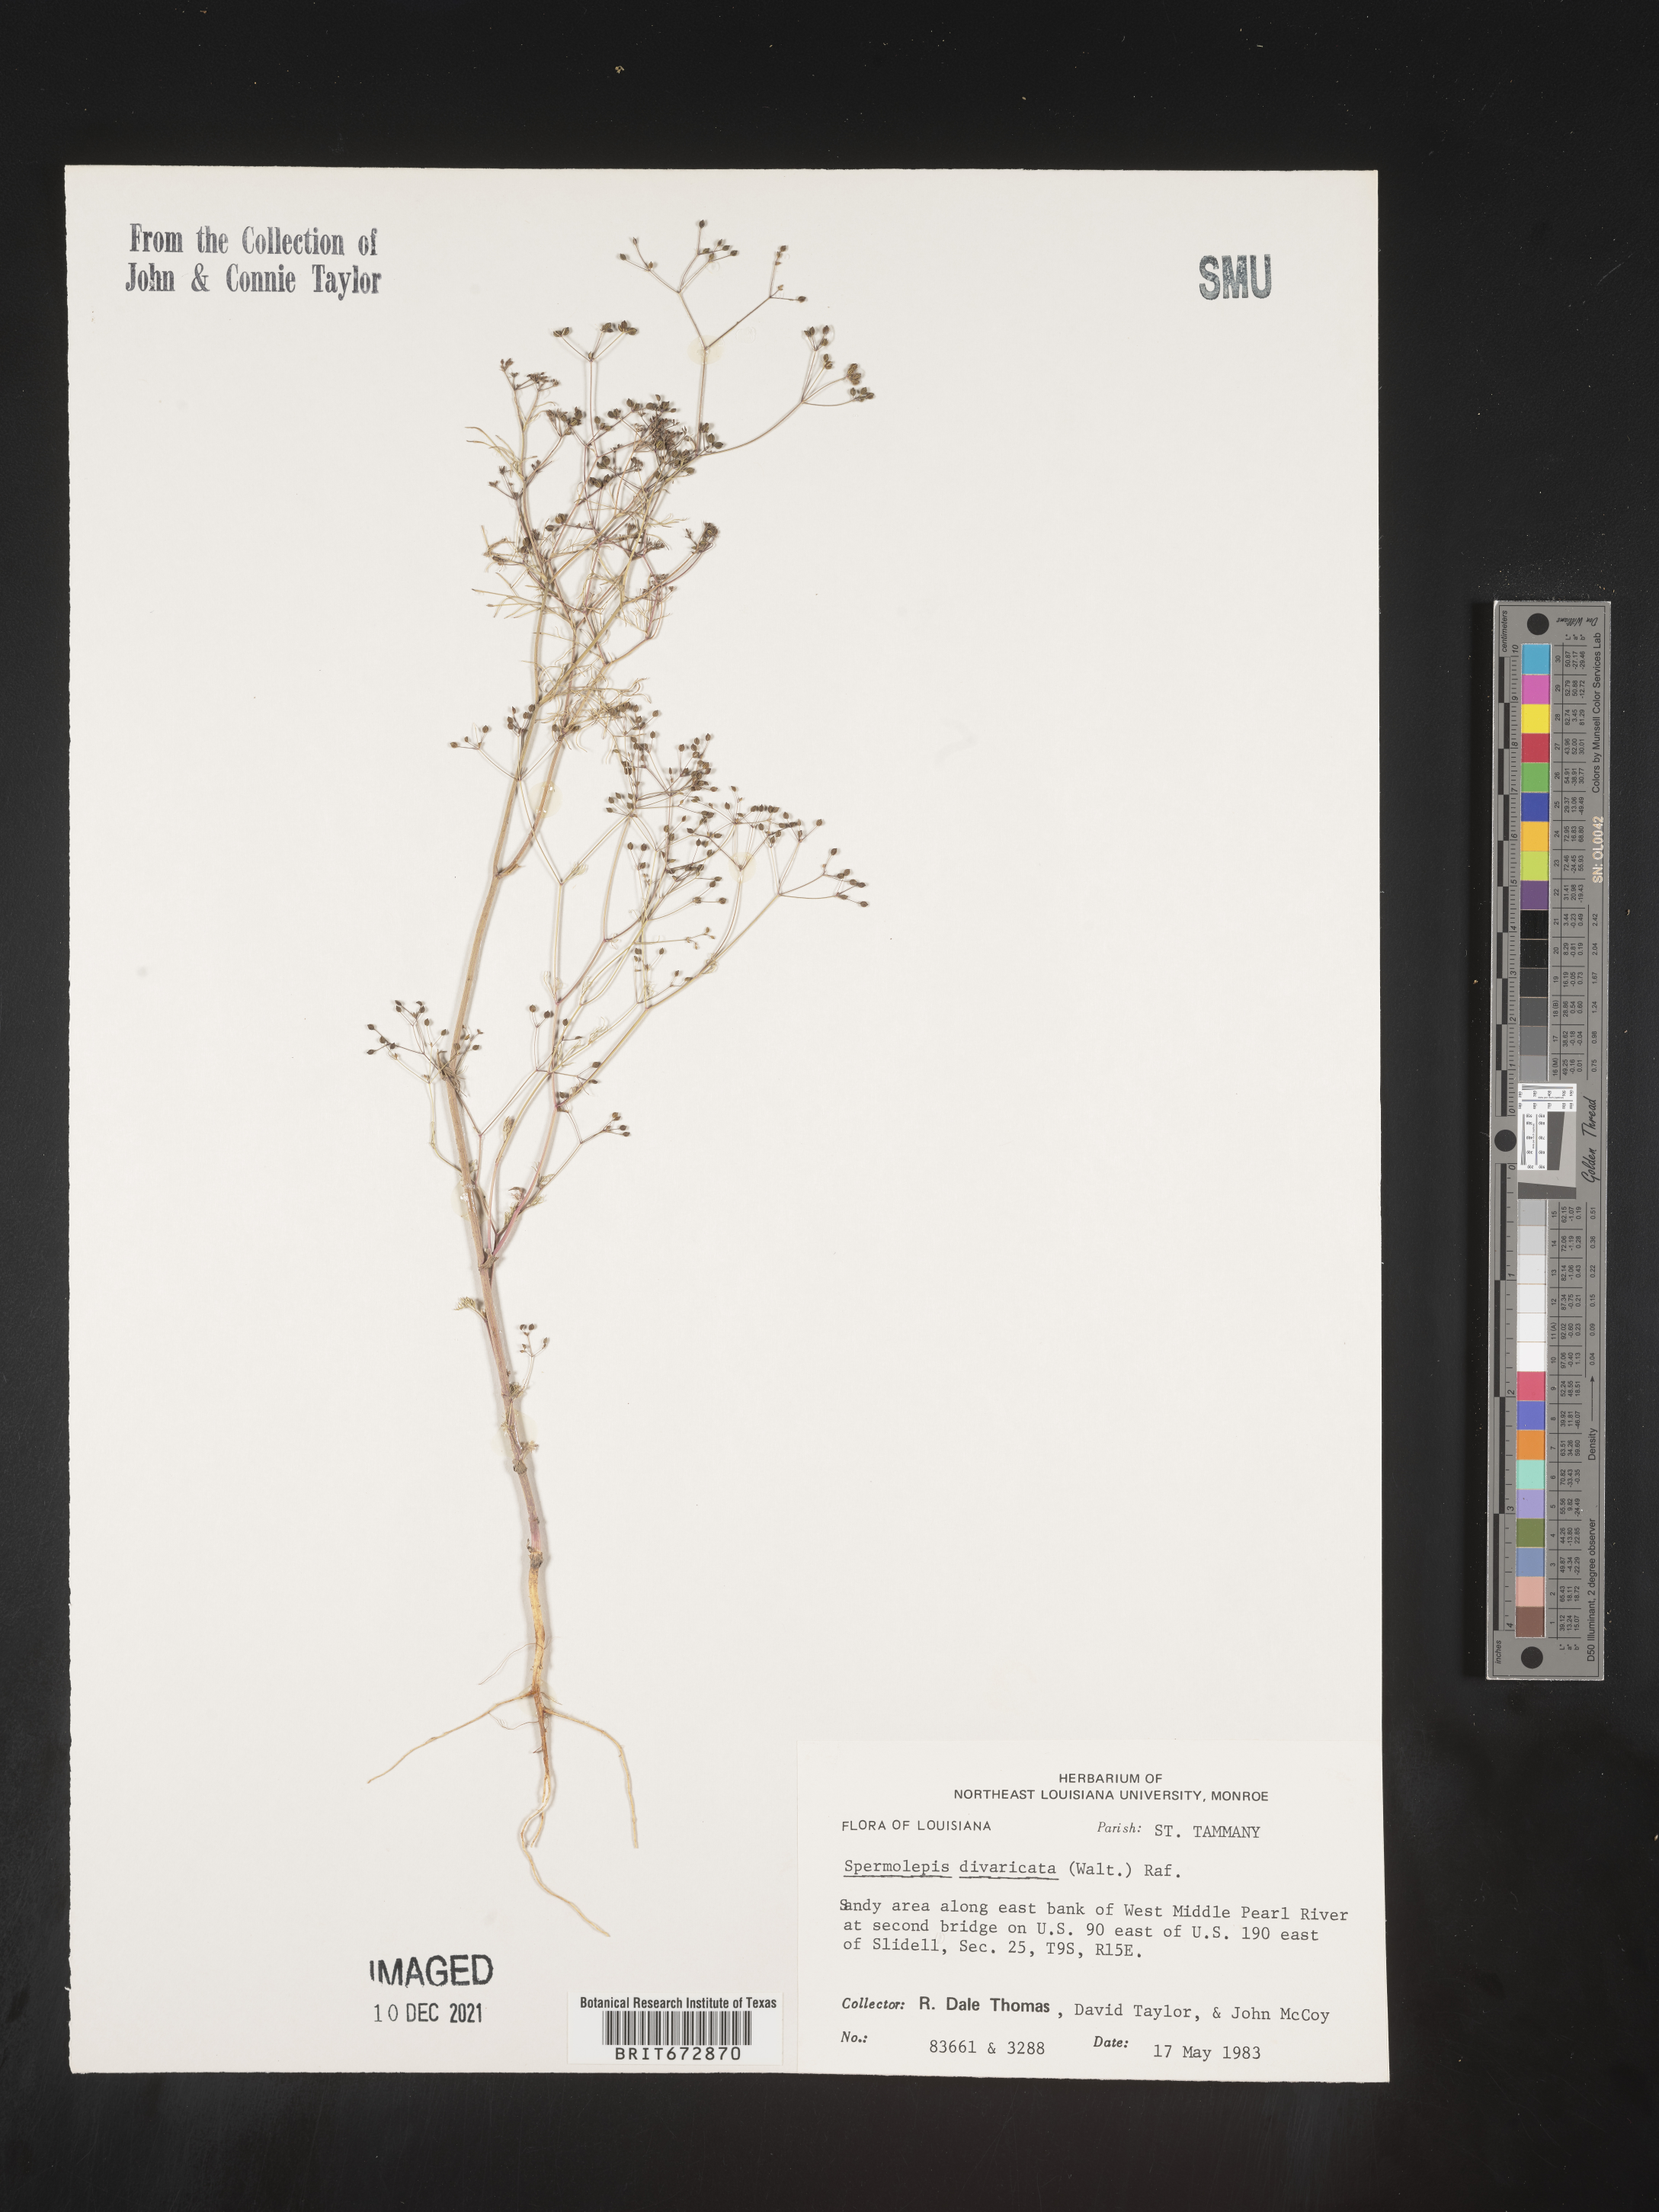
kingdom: Plantae
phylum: Tracheophyta
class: Magnoliopsida
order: Apiales
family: Apiaceae
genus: Spermolepis
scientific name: Spermolepis divaricata
